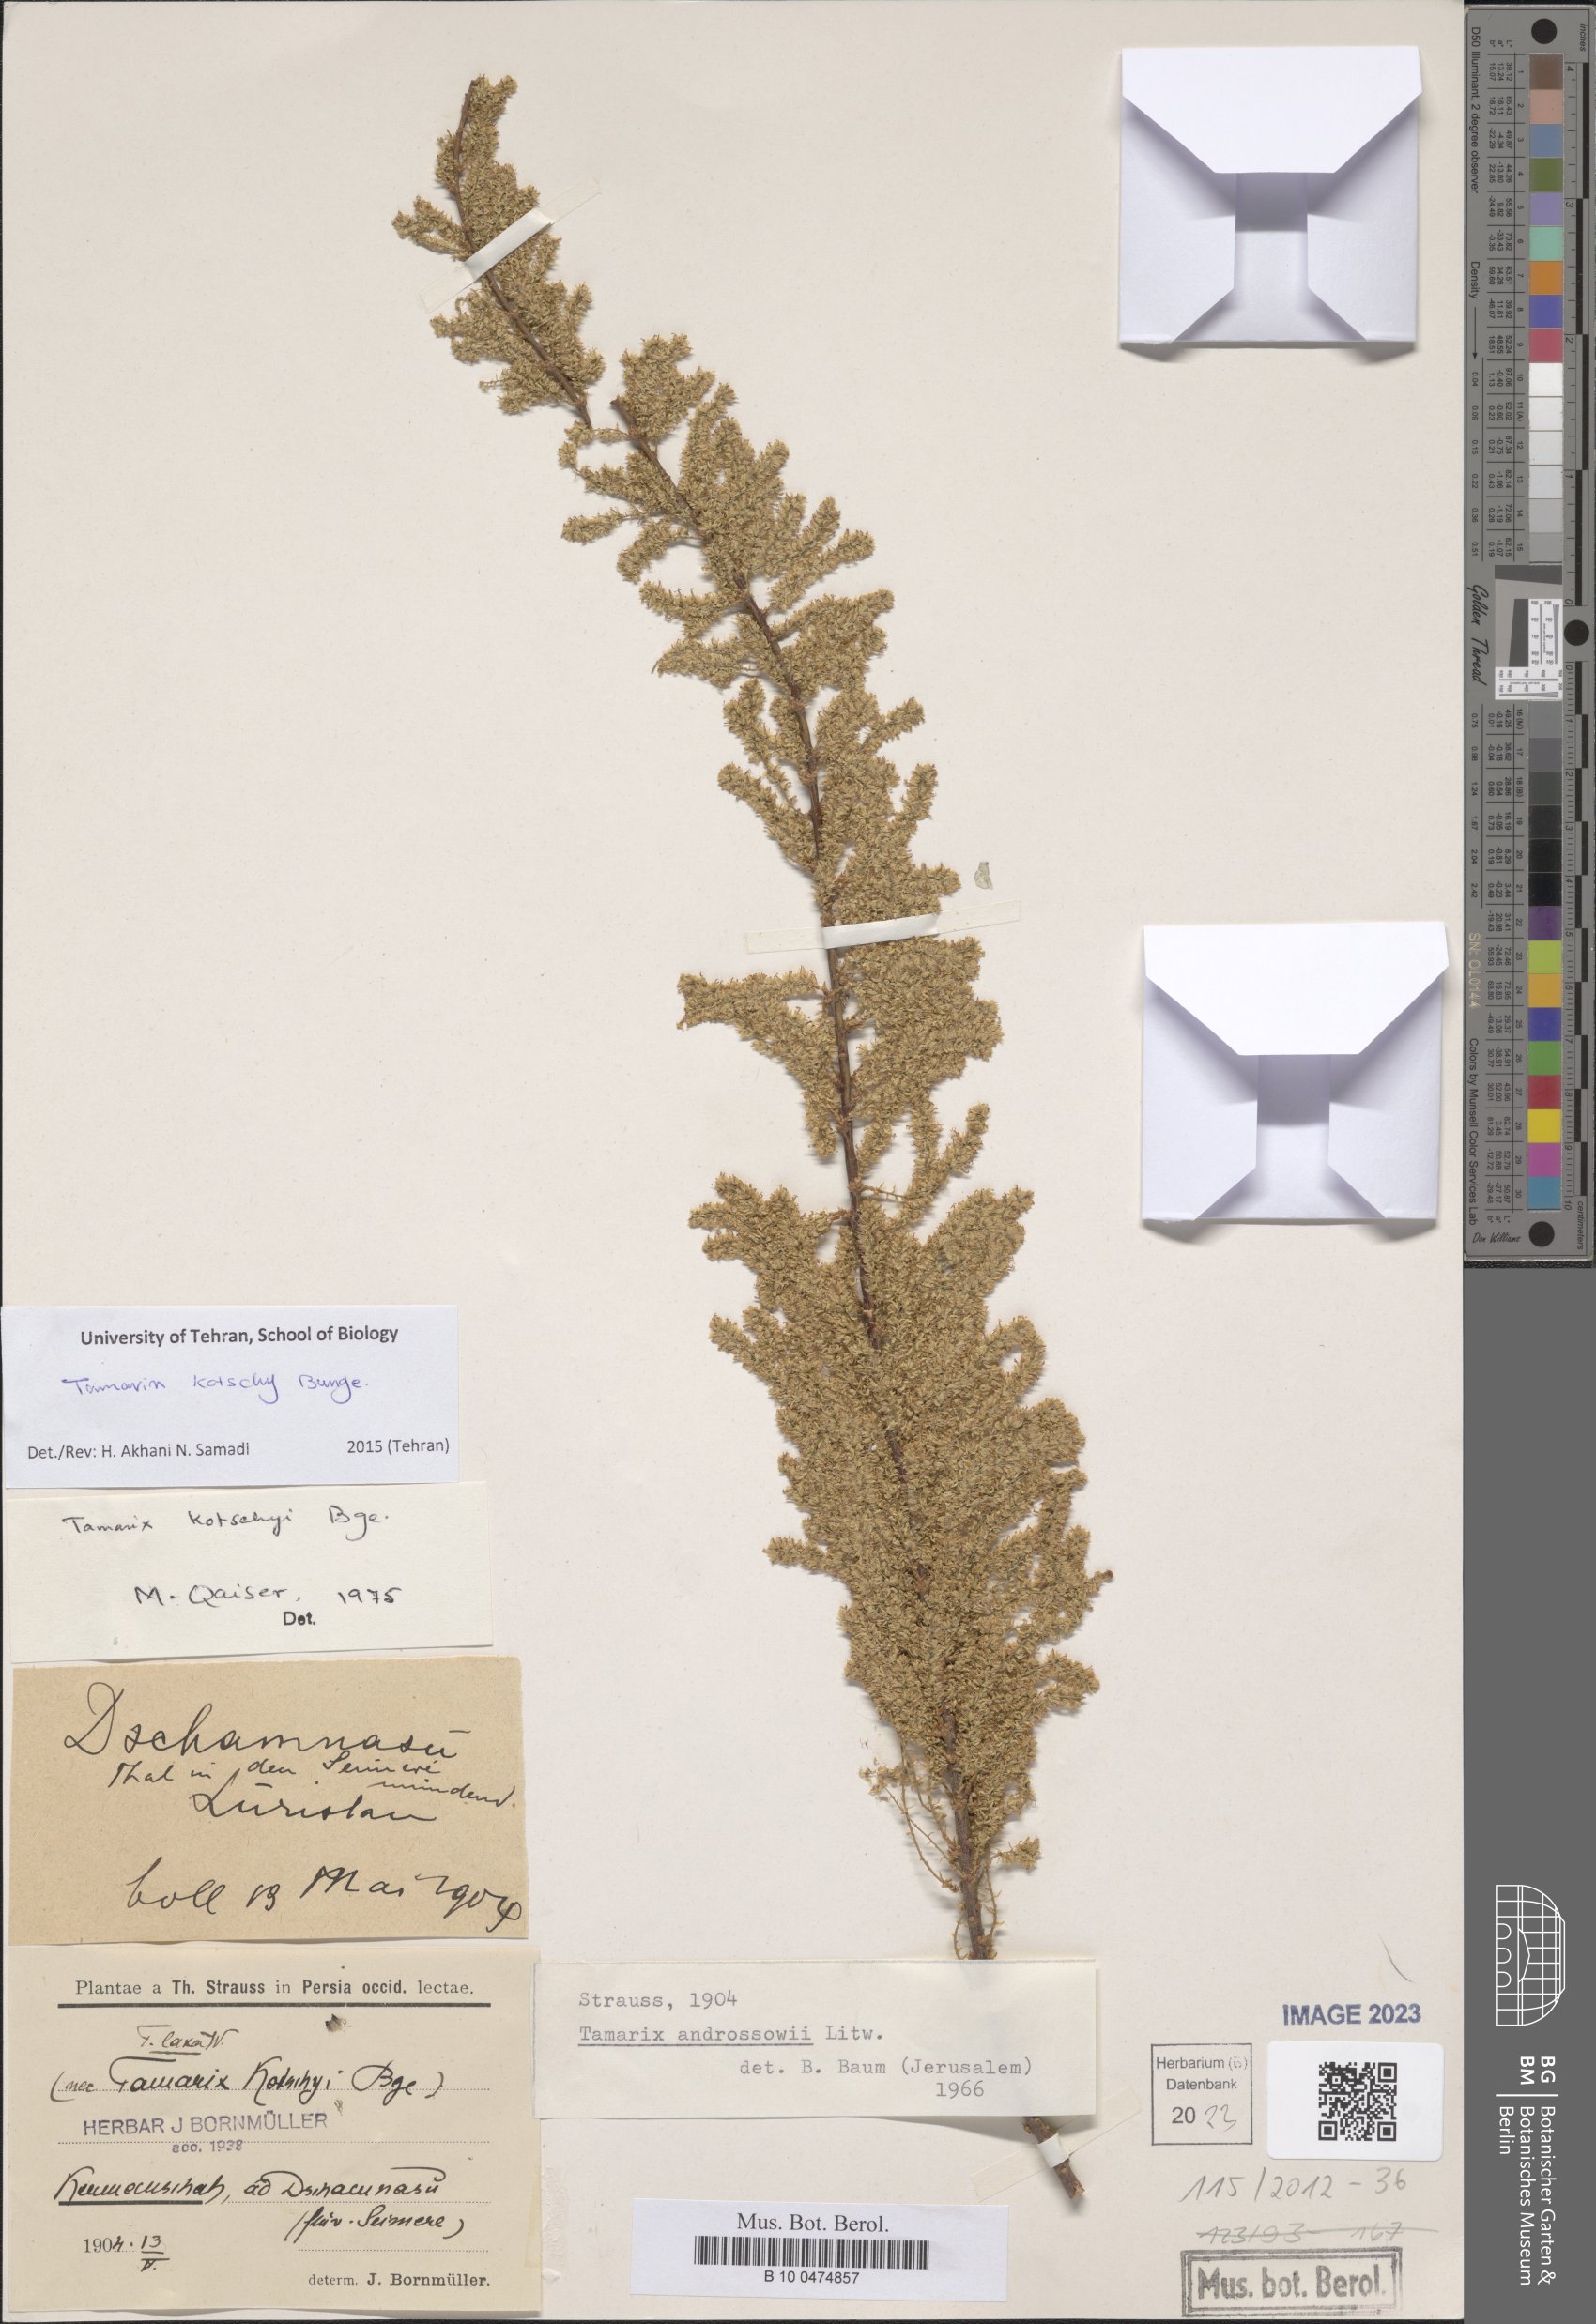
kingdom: Plantae
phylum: Tracheophyta
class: Magnoliopsida
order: Caryophyllales
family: Tamaricaceae
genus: Tamarix
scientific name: Tamarix kotschyi
